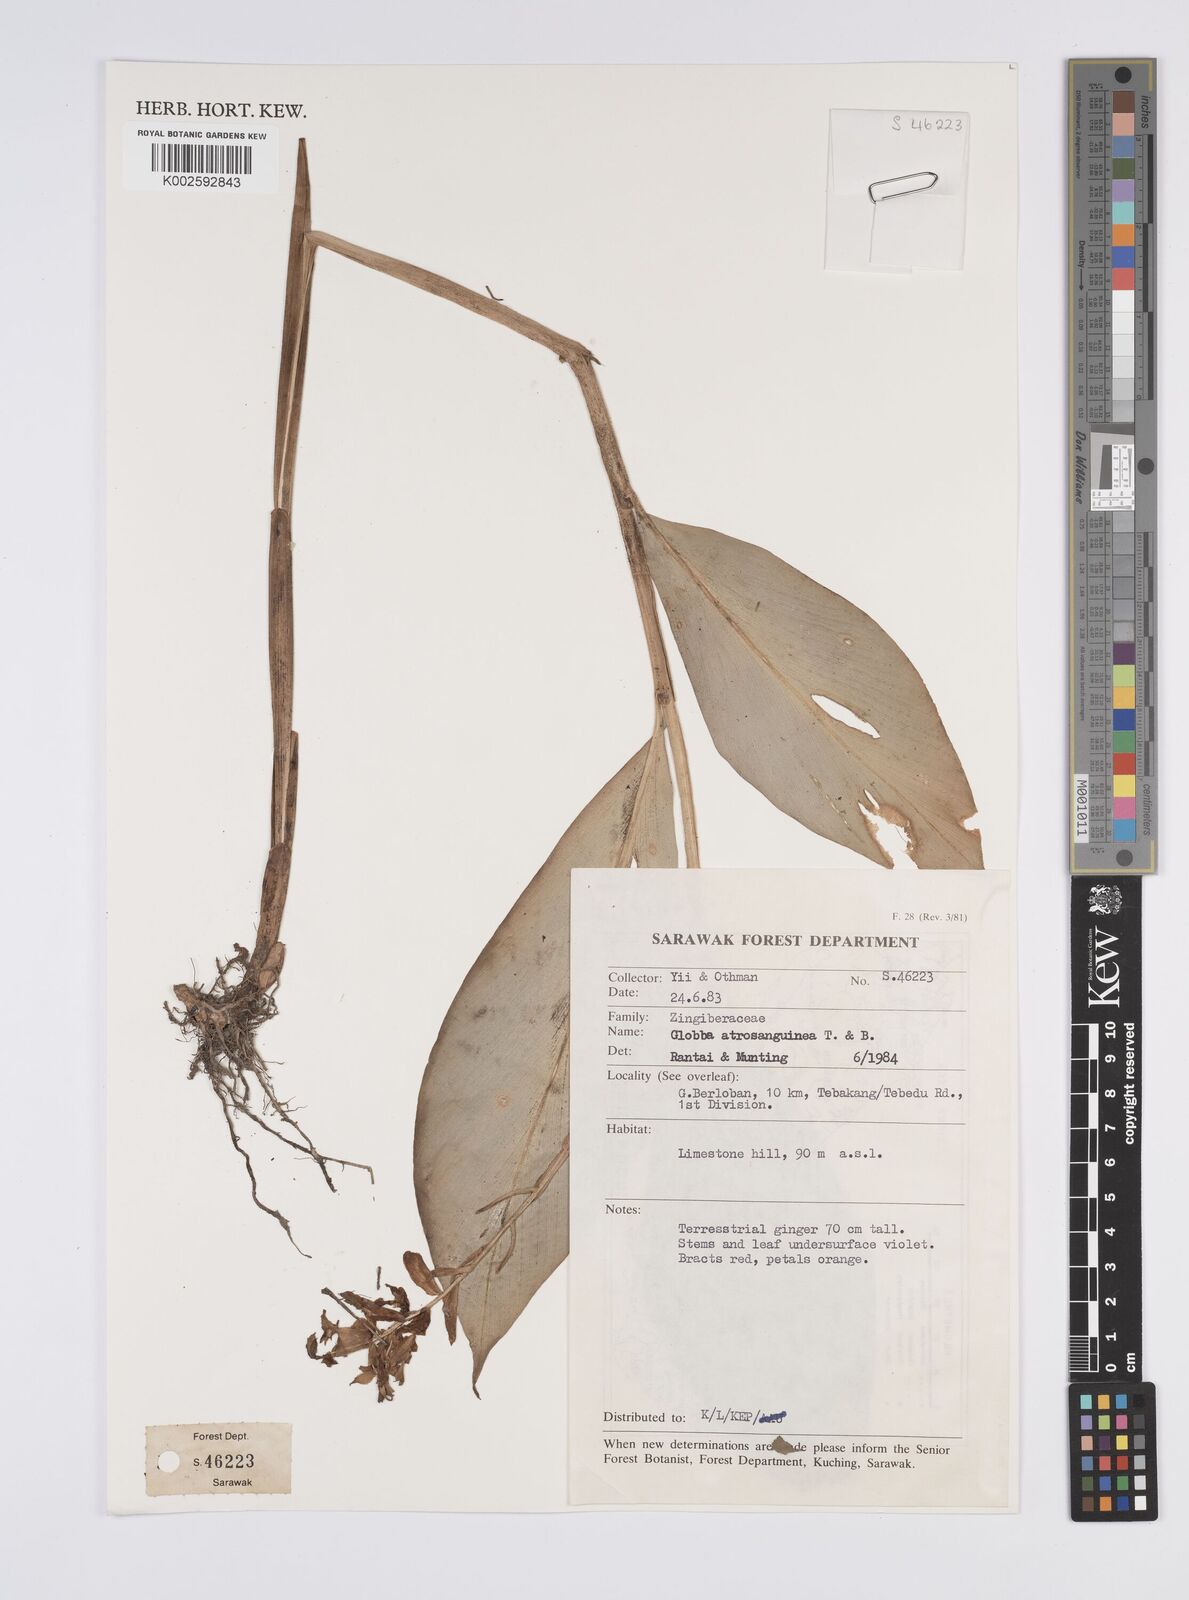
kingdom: Plantae
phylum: Tracheophyta
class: Liliopsida
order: Zingiberales
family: Zingiberaceae
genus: Globba
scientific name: Globba atrosanguinea
